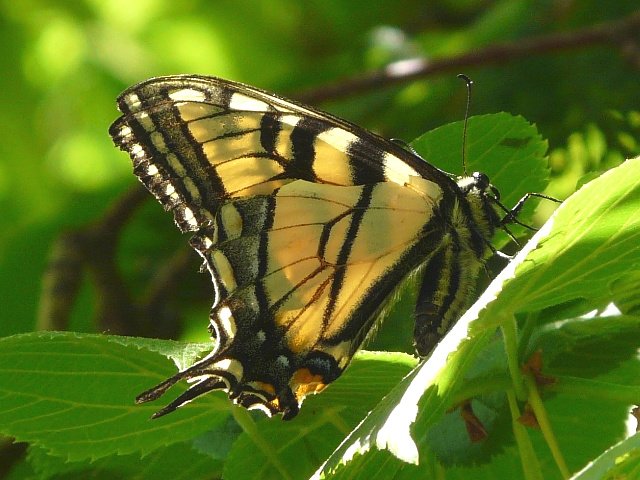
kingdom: Animalia
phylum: Arthropoda
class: Insecta
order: Lepidoptera
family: Papilionidae
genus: Pterourus
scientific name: Pterourus glaucus
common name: Eastern Tiger Swallowtail
